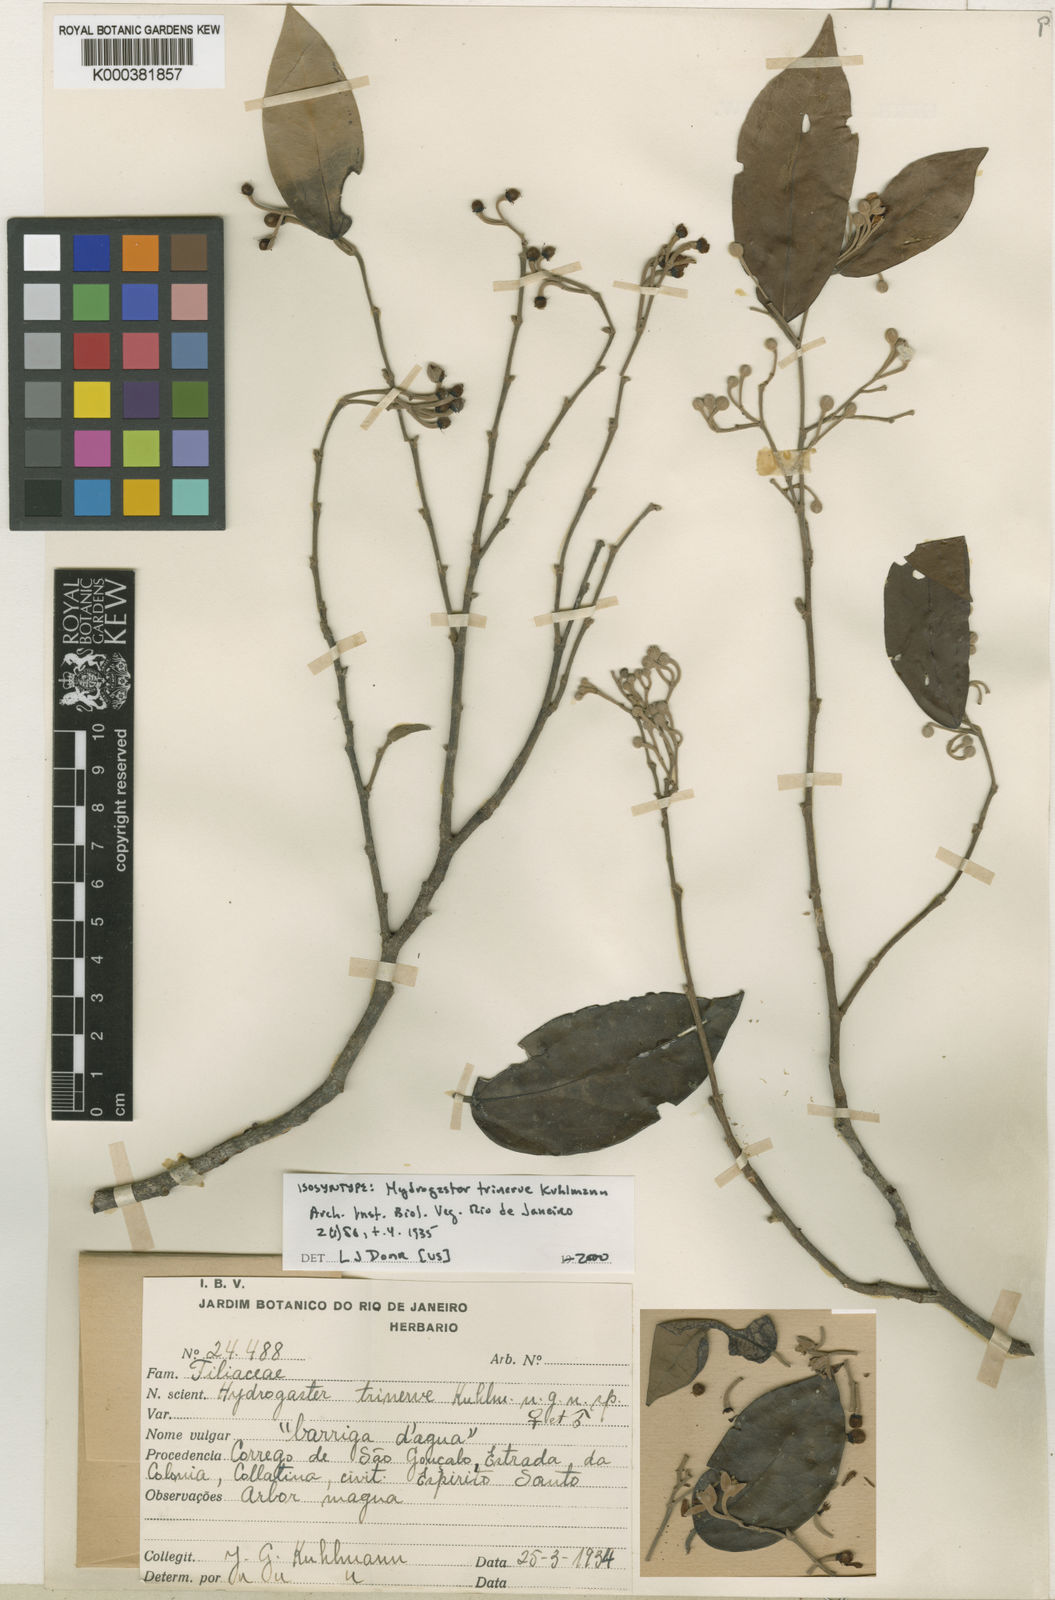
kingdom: Plantae
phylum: Tracheophyta
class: Magnoliopsida
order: Malvales
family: Malvaceae
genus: Hydrogaster
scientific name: Hydrogaster
